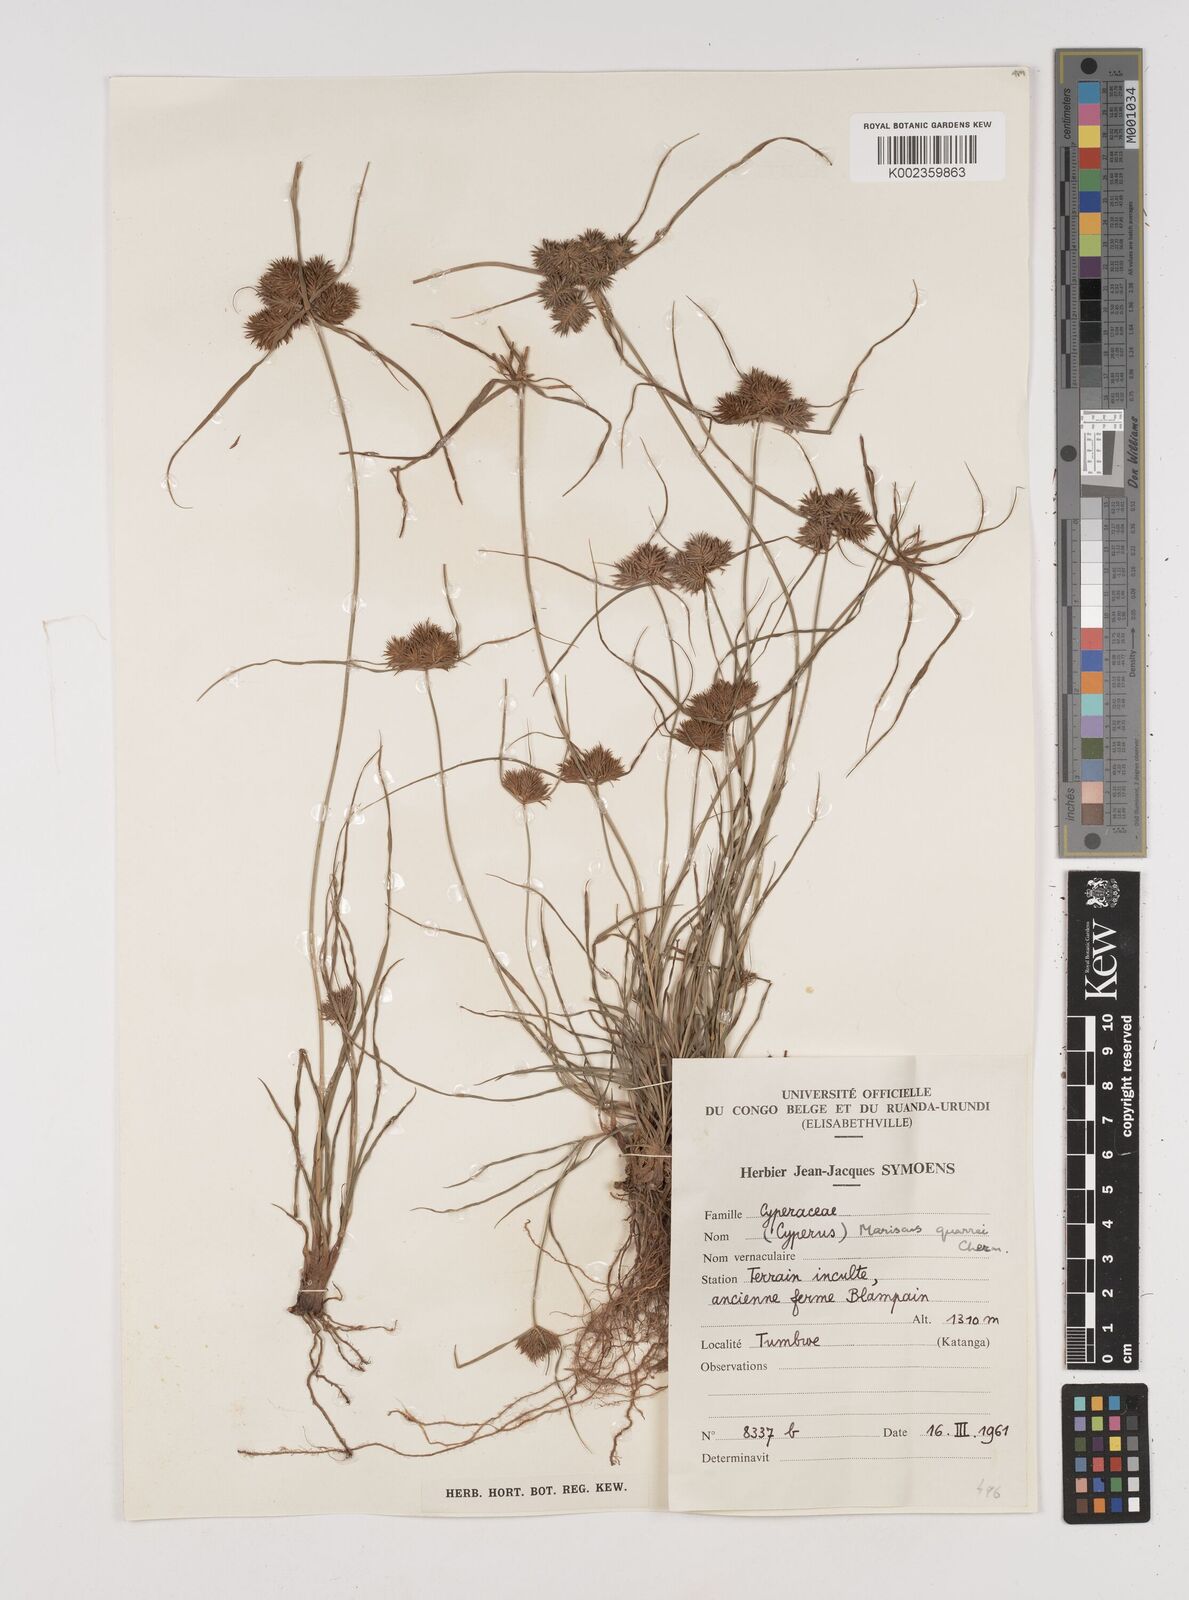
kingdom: Plantae
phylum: Tracheophyta
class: Liliopsida
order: Poales
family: Cyperaceae
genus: Cyperus
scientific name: Cyperus tenuis
